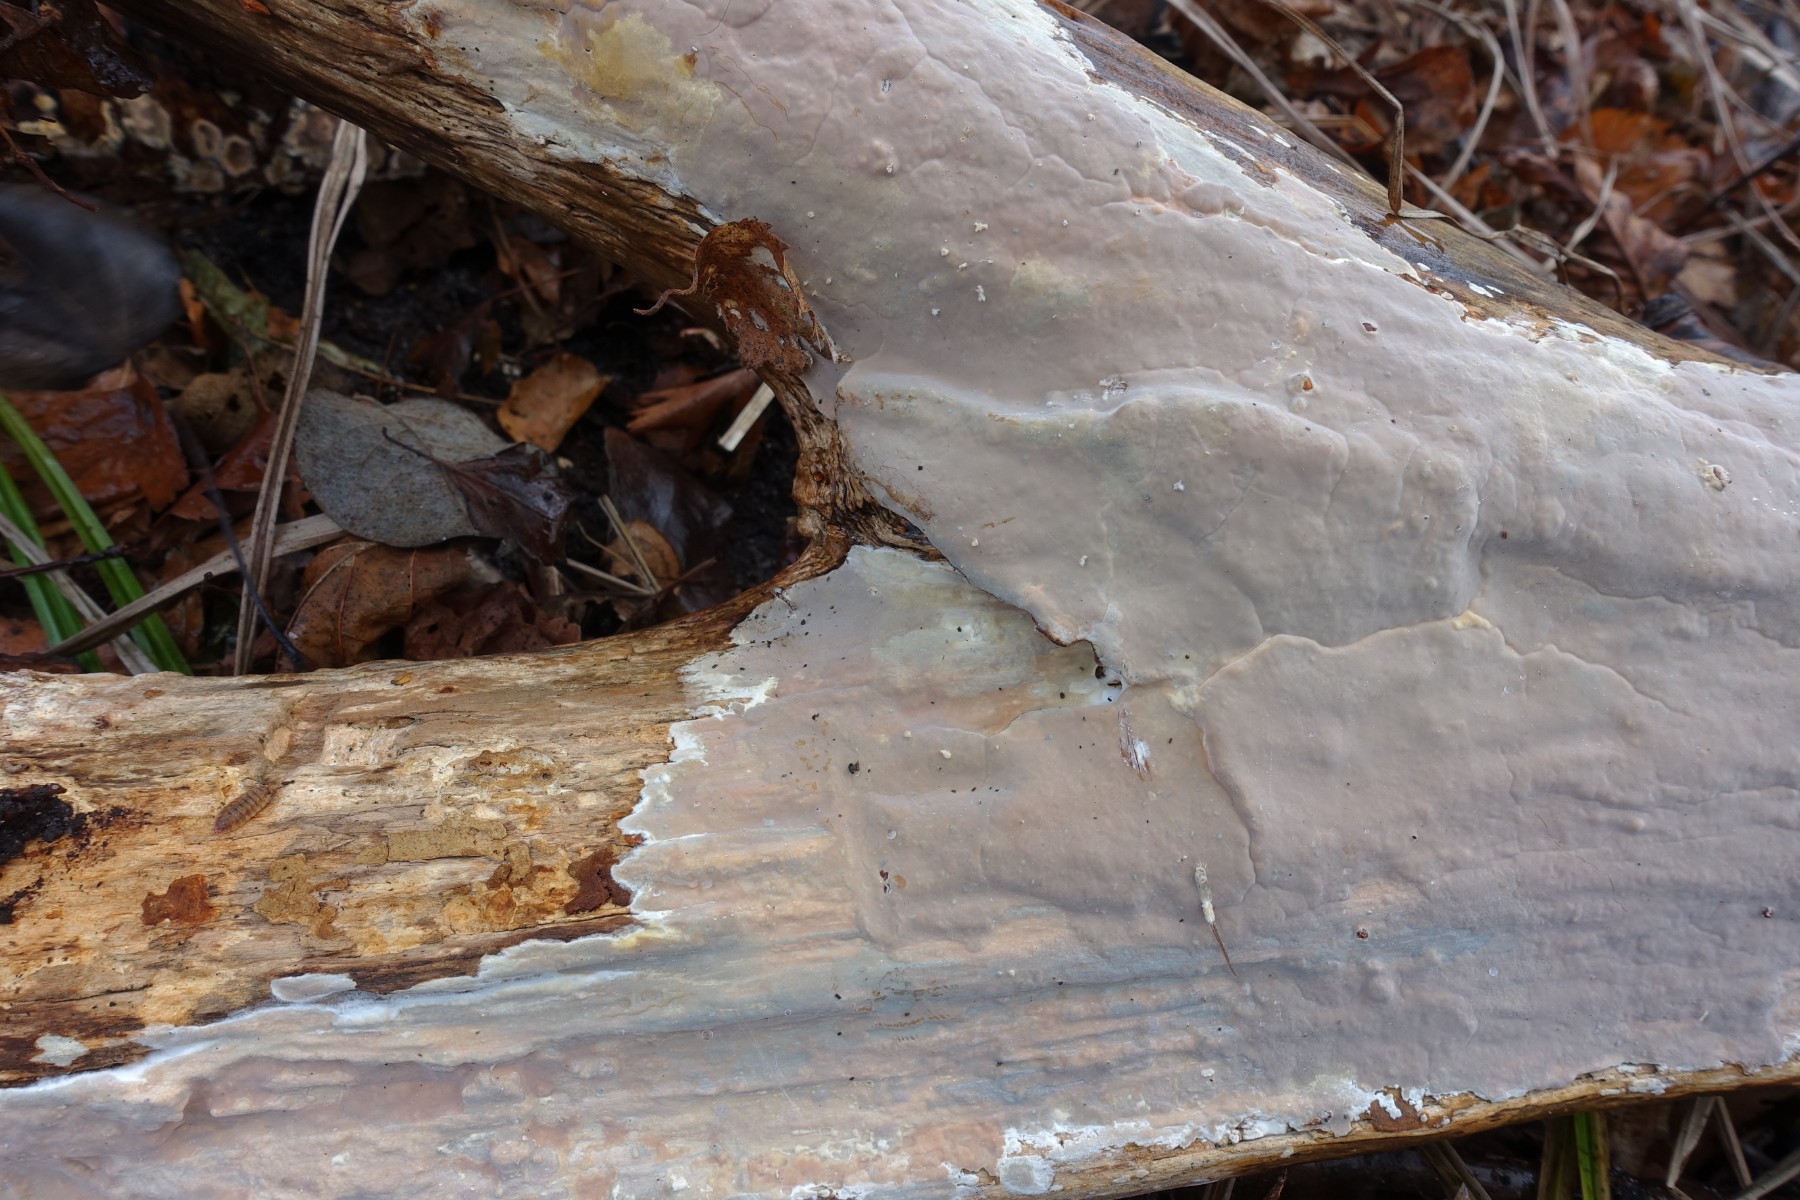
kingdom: Fungi
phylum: Basidiomycota
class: Agaricomycetes
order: Russulales
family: Peniophoraceae
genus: Scytinostroma
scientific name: Scytinostroma hemidichophyticum
